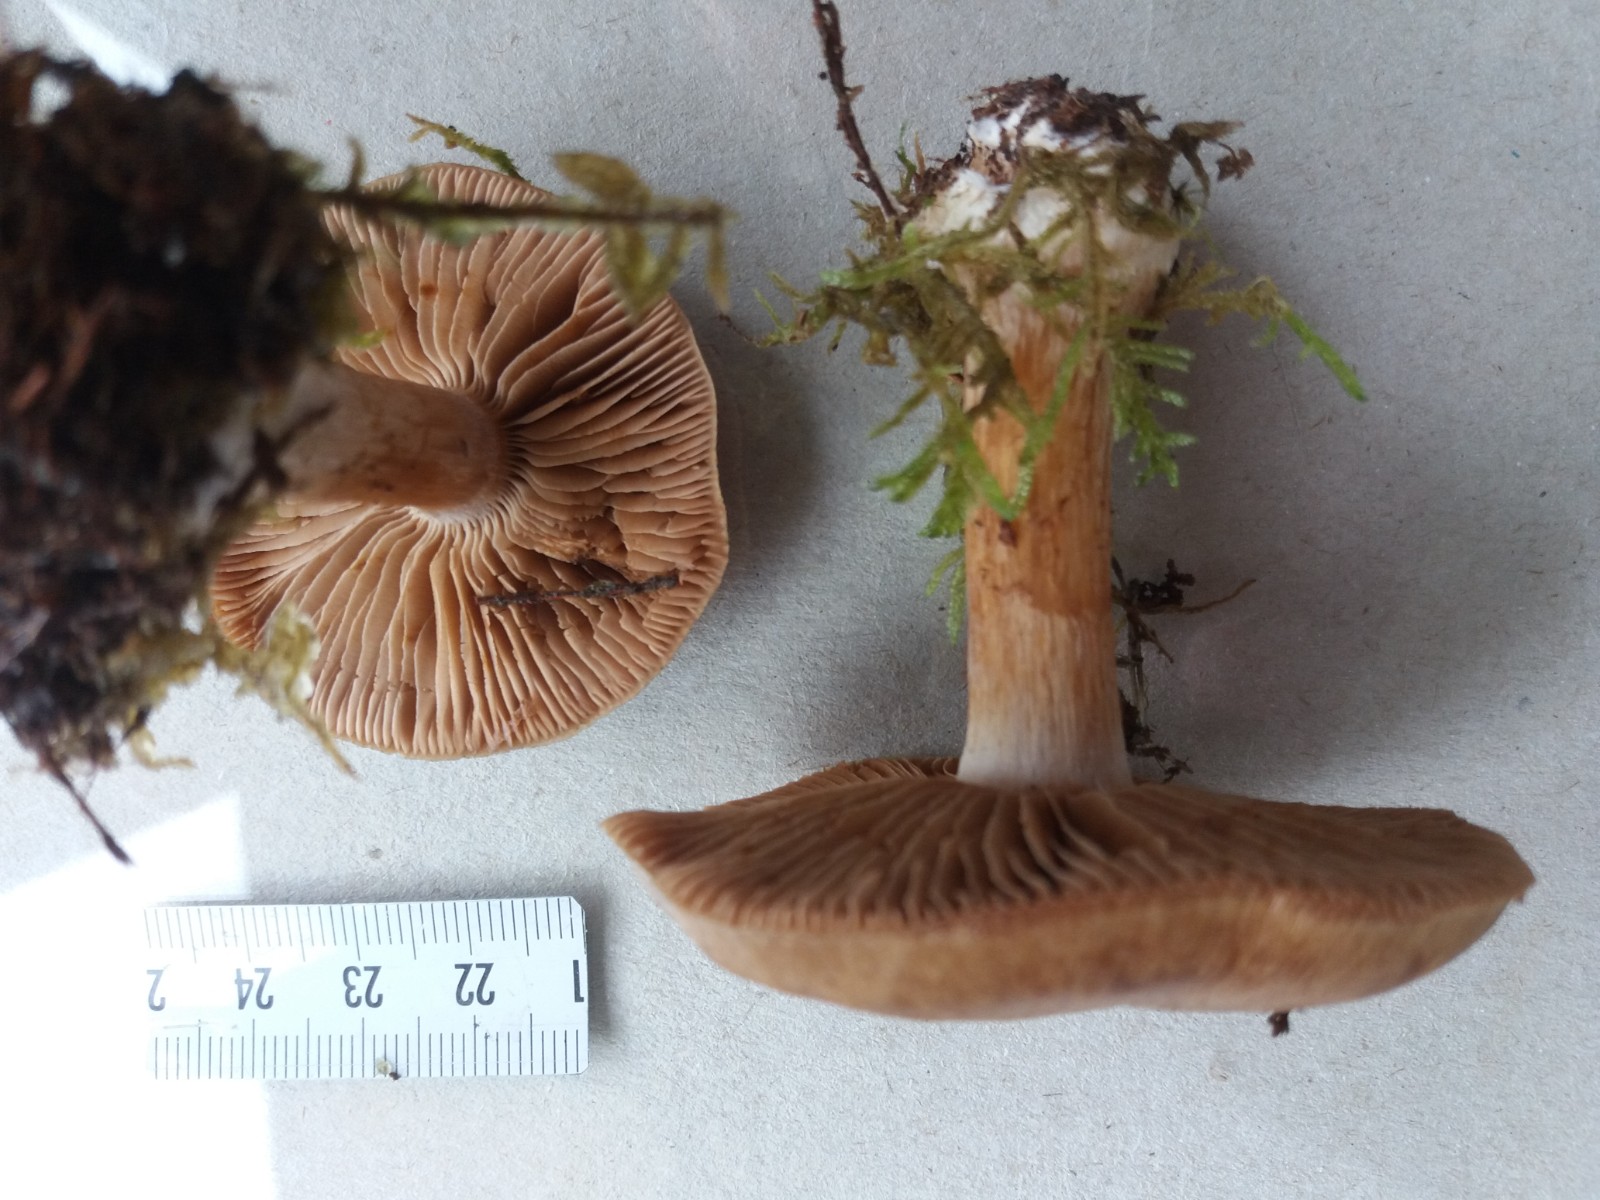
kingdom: Fungi
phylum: Basidiomycota
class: Agaricomycetes
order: Agaricales
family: Cortinariaceae
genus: Thaxterogaster
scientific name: Thaxterogaster scaurus
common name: sump-slørhat
